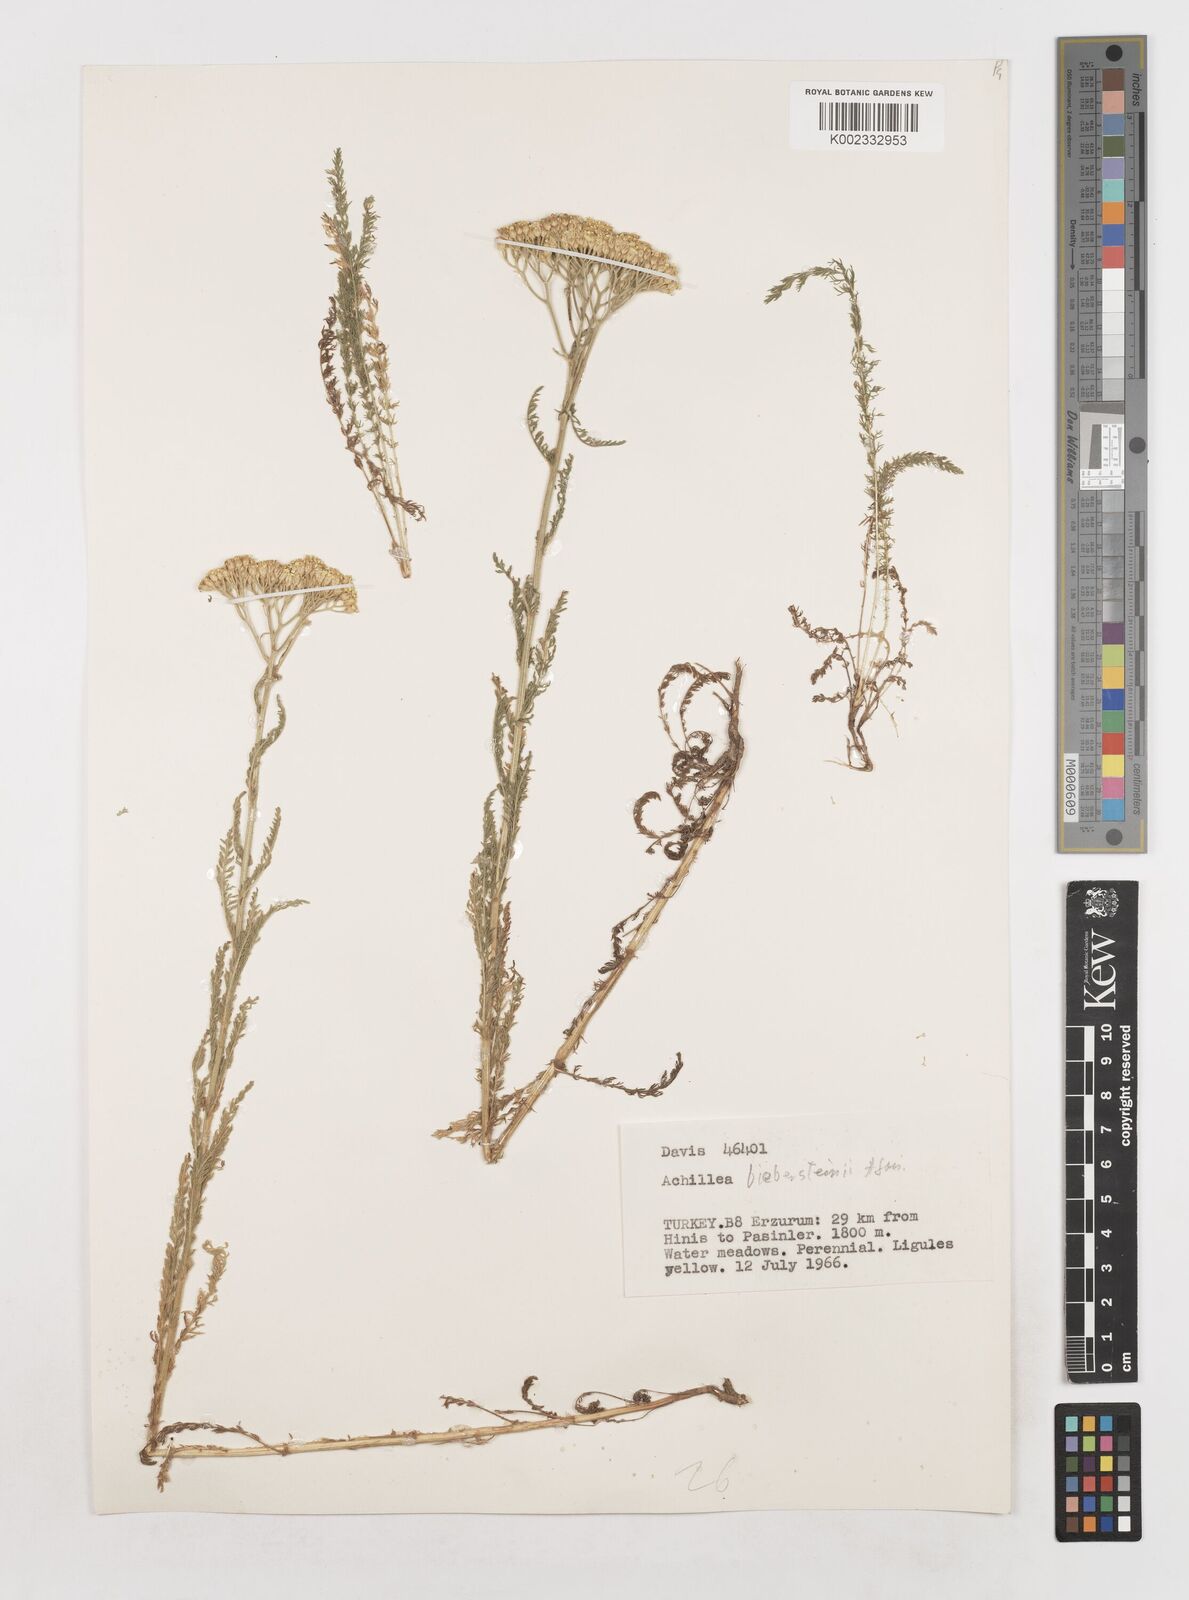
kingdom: Plantae
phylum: Tracheophyta
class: Magnoliopsida
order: Asterales
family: Asteraceae
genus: Achillea
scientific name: Achillea arabica
